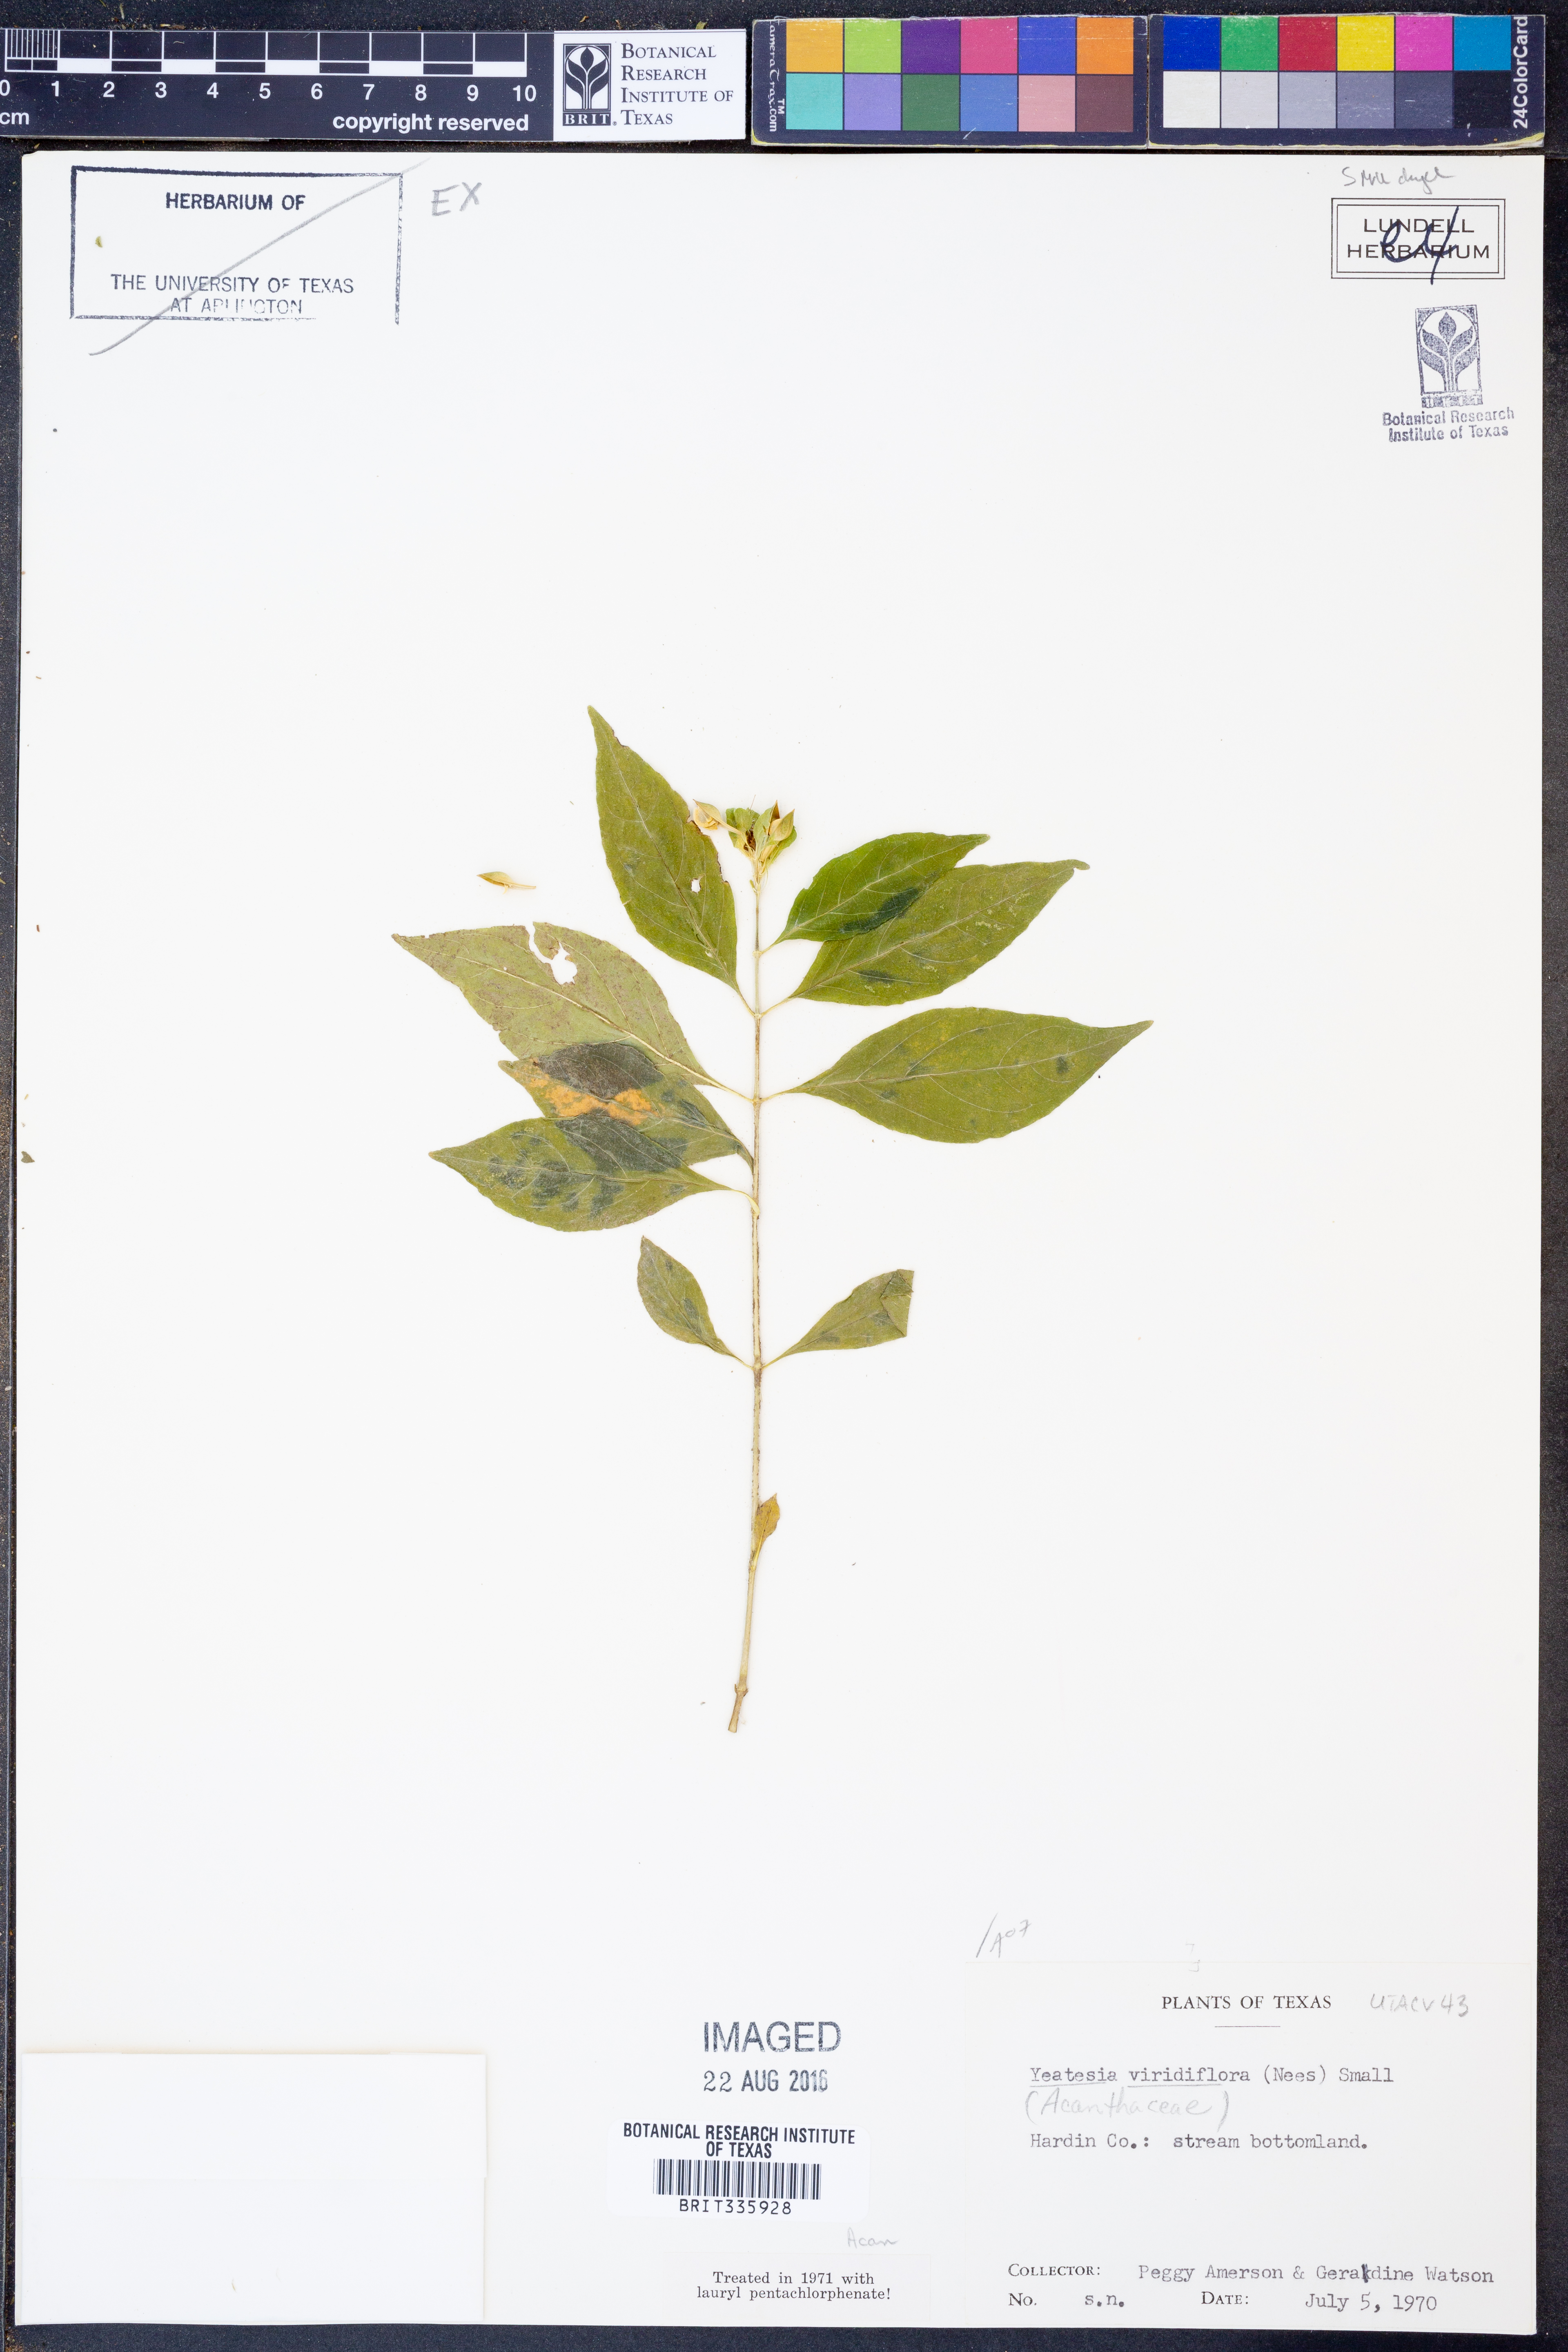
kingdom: Plantae
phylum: Tracheophyta
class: Magnoliopsida
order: Lamiales
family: Acanthaceae
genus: Yeatesia
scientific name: Yeatesia viridiflora
